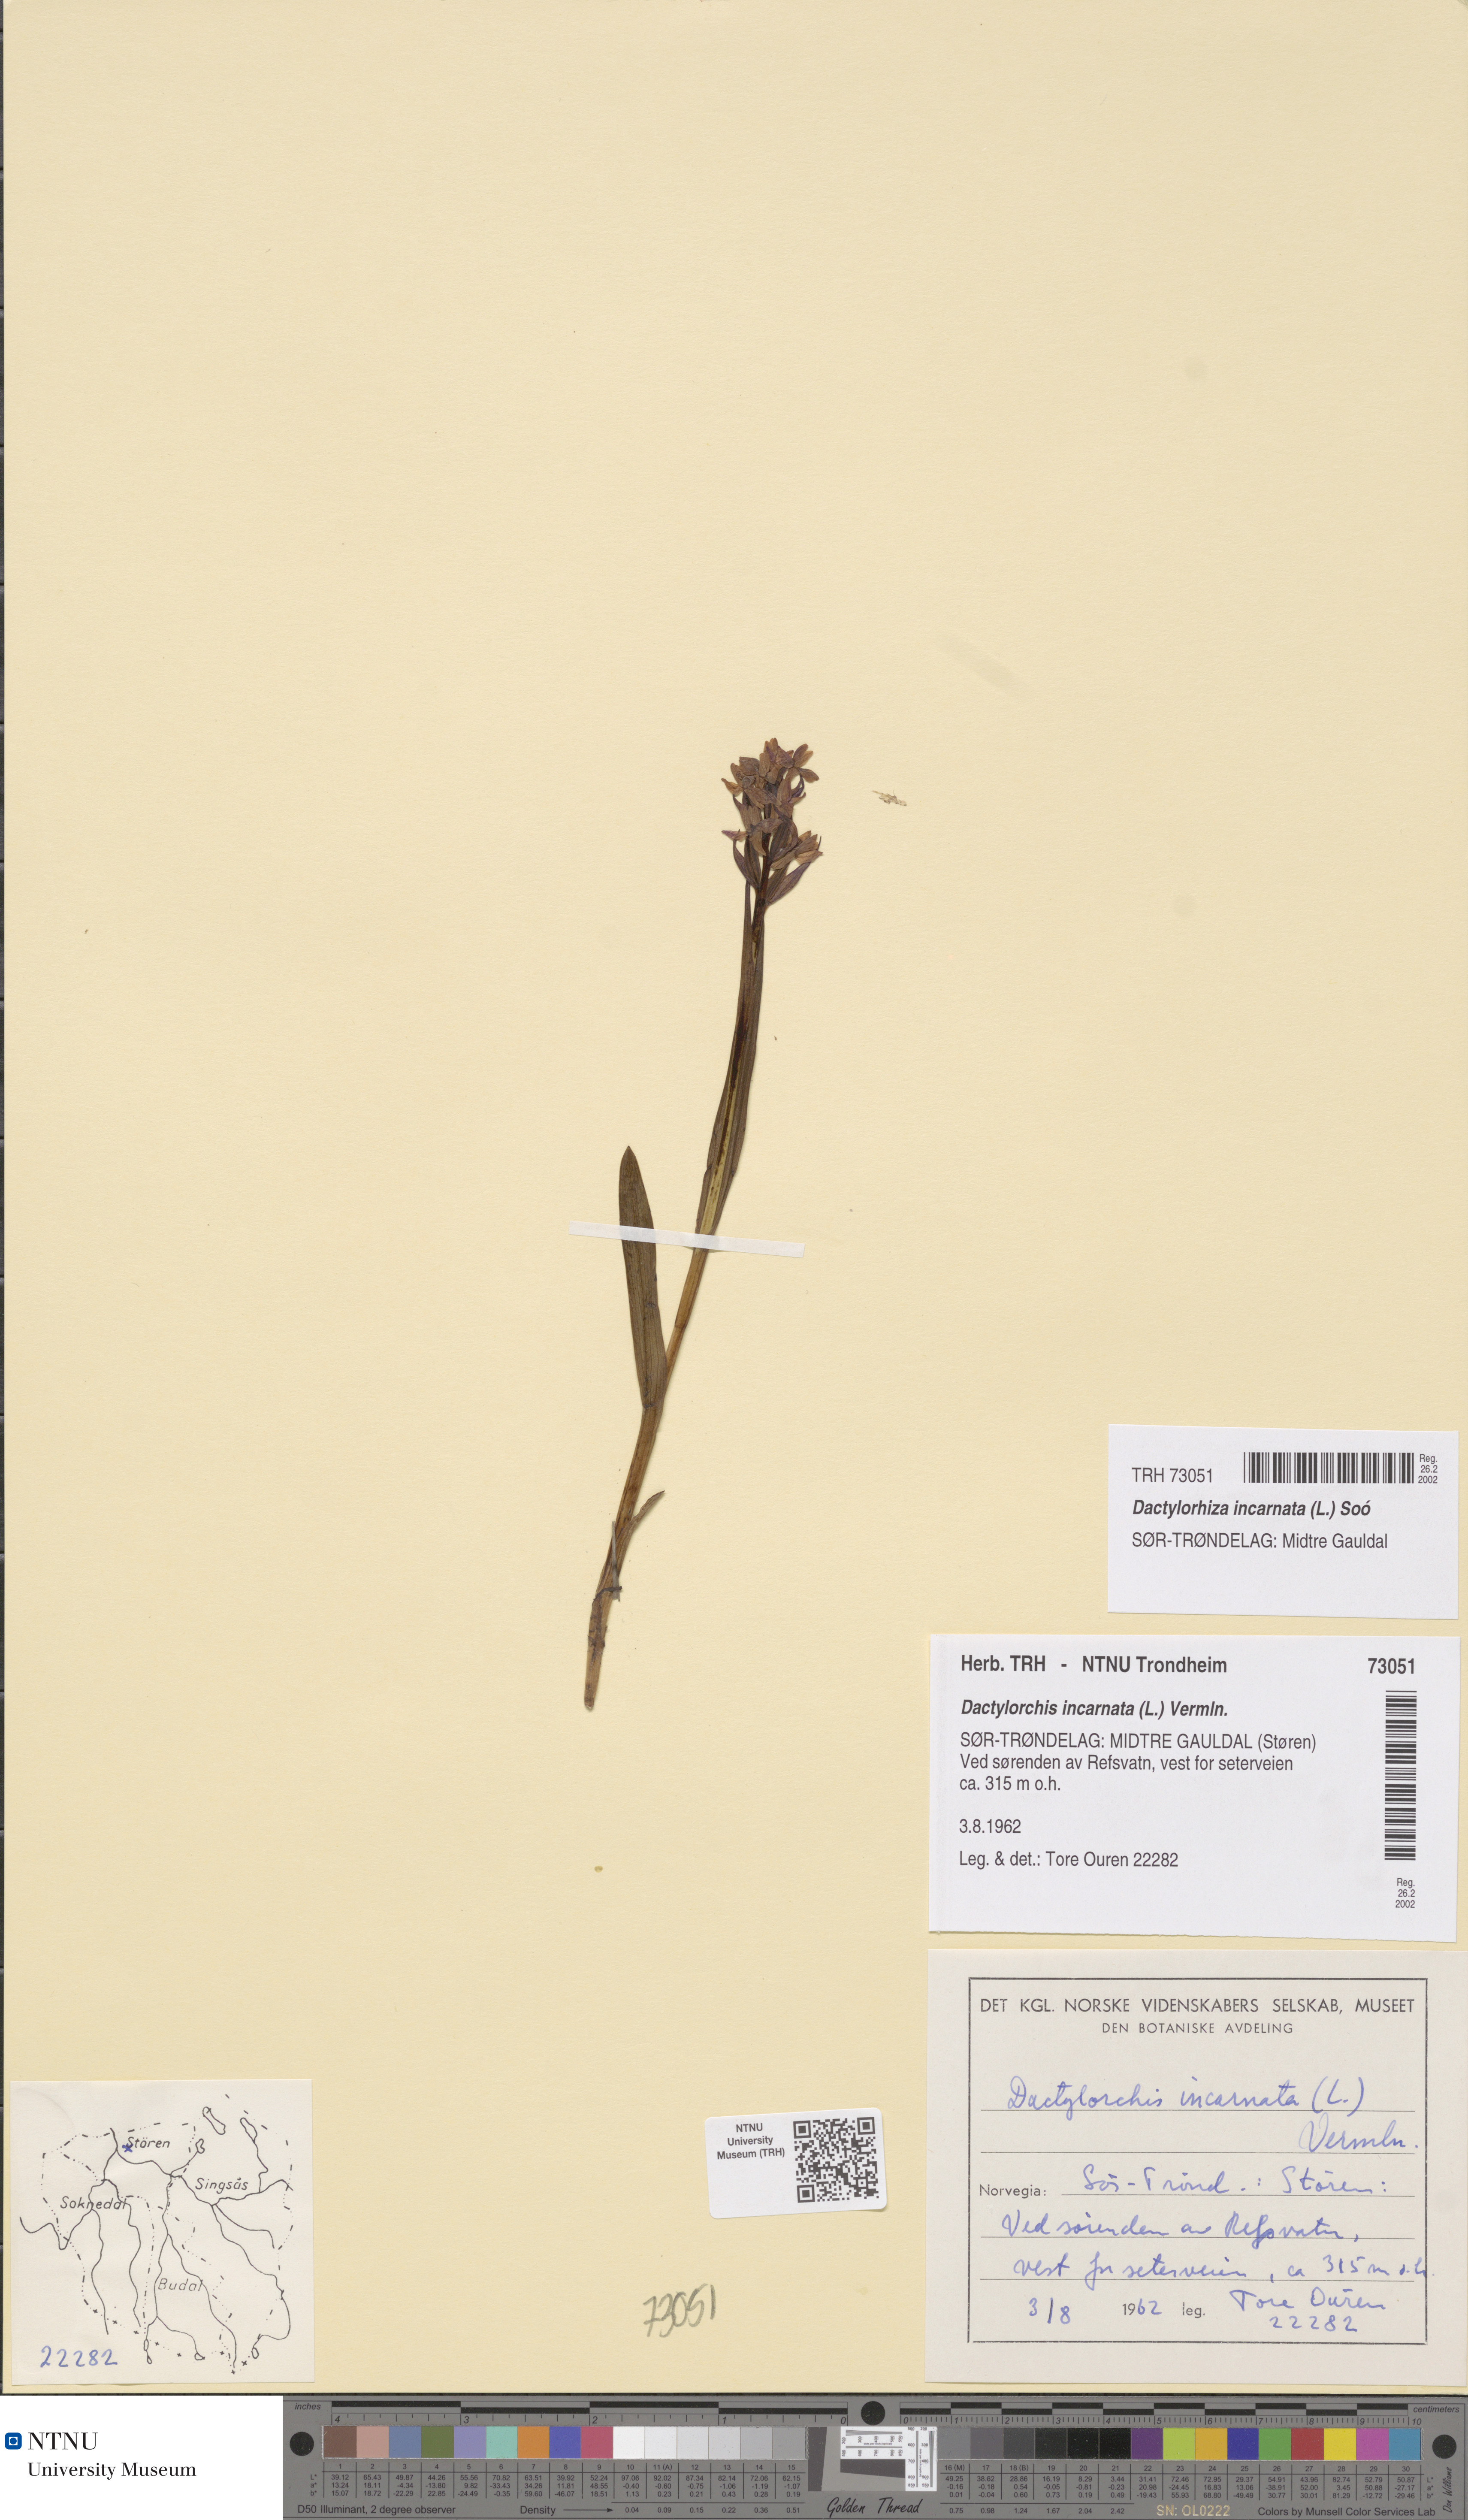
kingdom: Plantae
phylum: Tracheophyta
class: Liliopsida
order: Asparagales
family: Orchidaceae
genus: Dactylorhiza
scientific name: Dactylorhiza incarnata
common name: Early marsh-orchid
